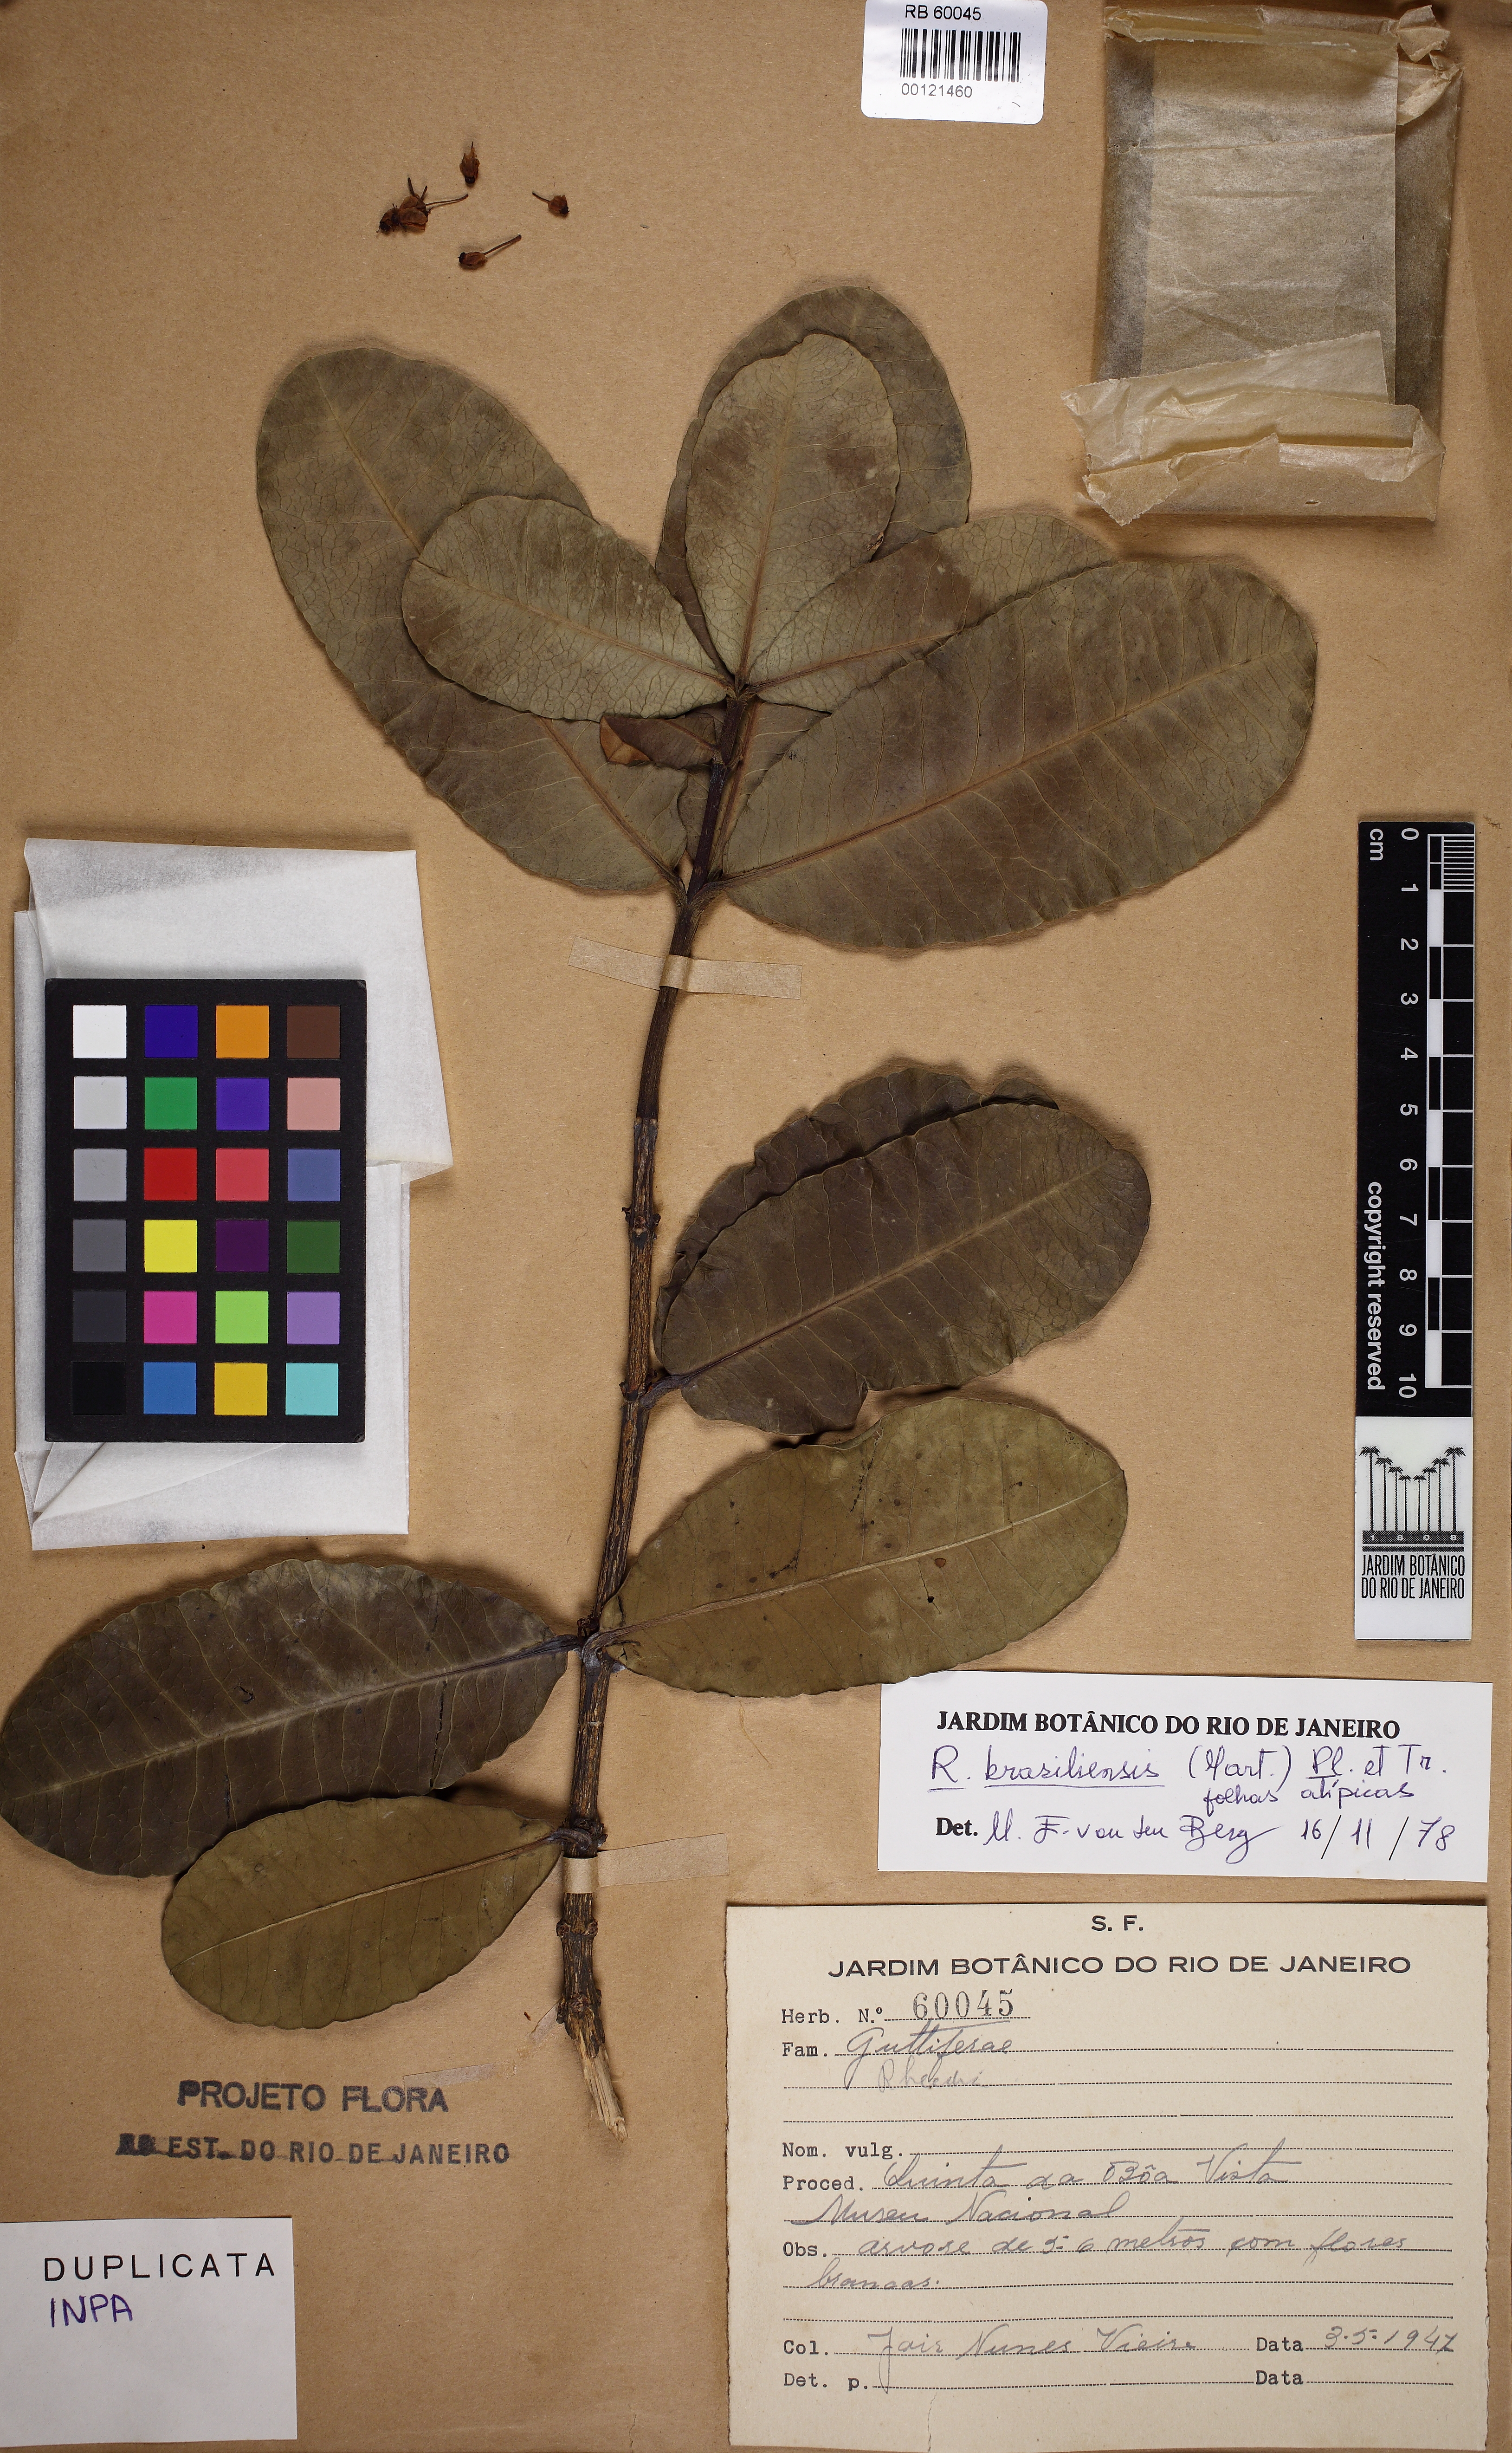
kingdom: Plantae
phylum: Tracheophyta
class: Magnoliopsida
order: Malpighiales
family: Clusiaceae
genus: Garcinia
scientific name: Garcinia brasiliensis
